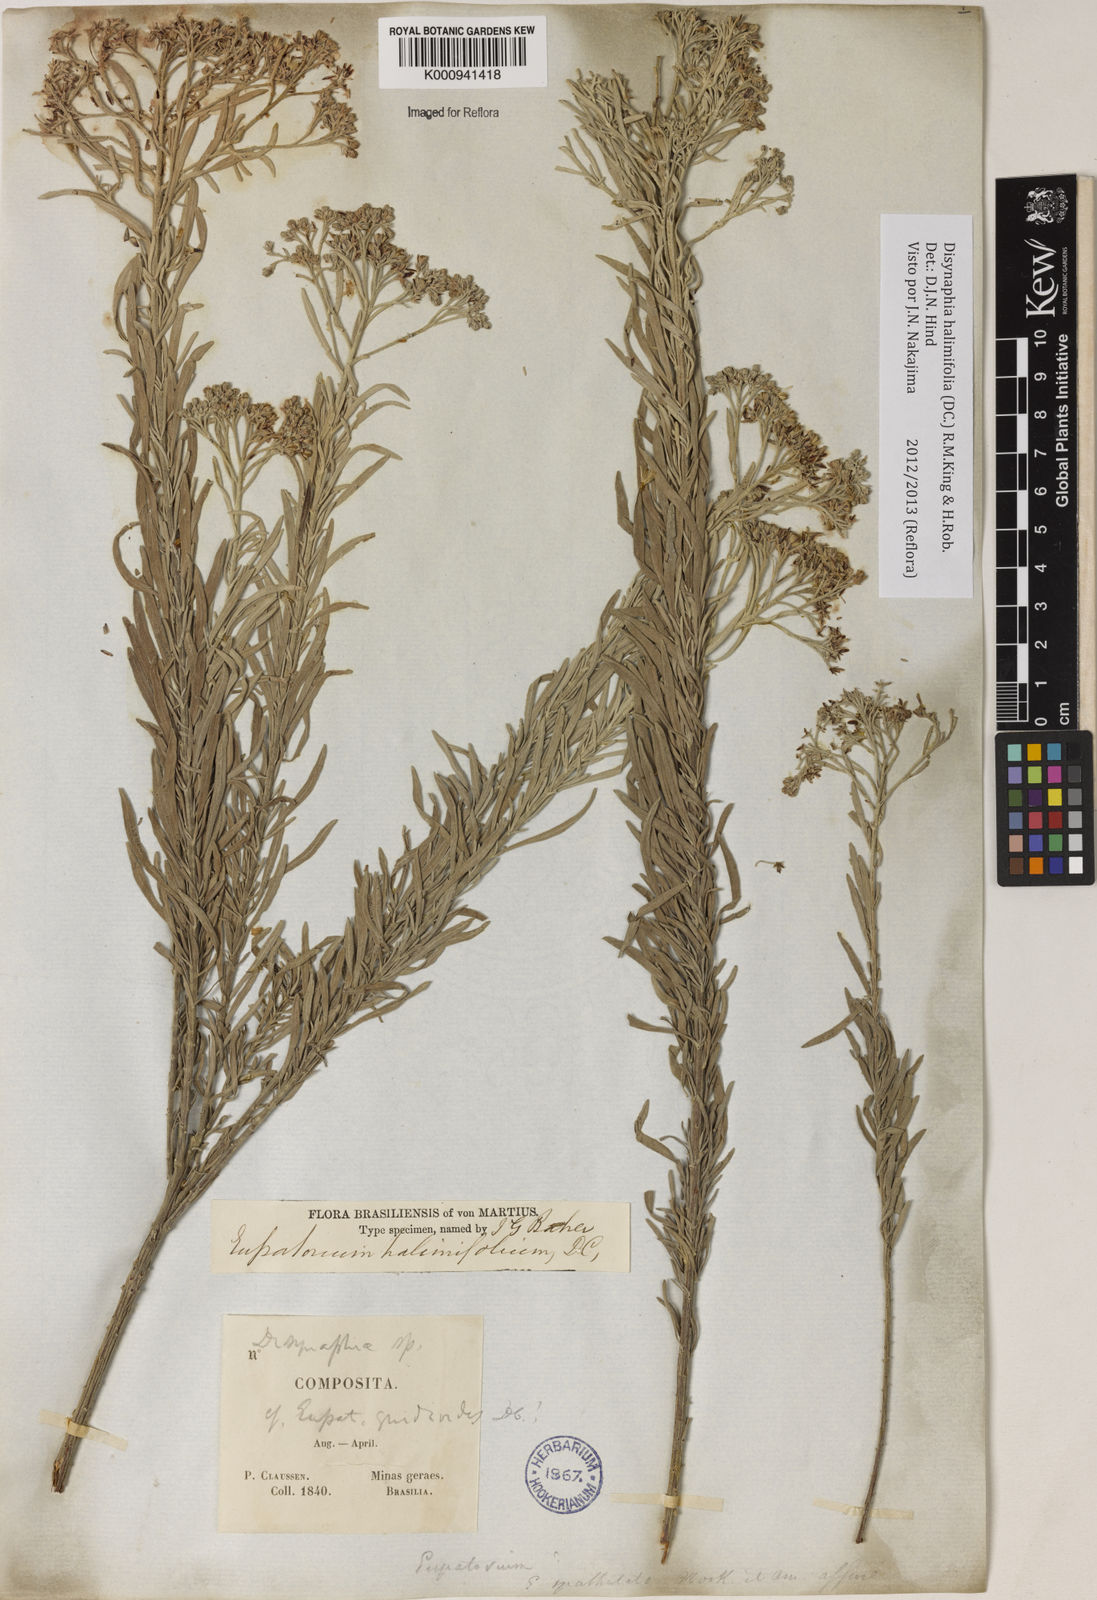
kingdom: Plantae
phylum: Tracheophyta
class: Magnoliopsida
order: Asterales
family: Asteraceae
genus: Disynaphia
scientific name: Disynaphia halimifolia
